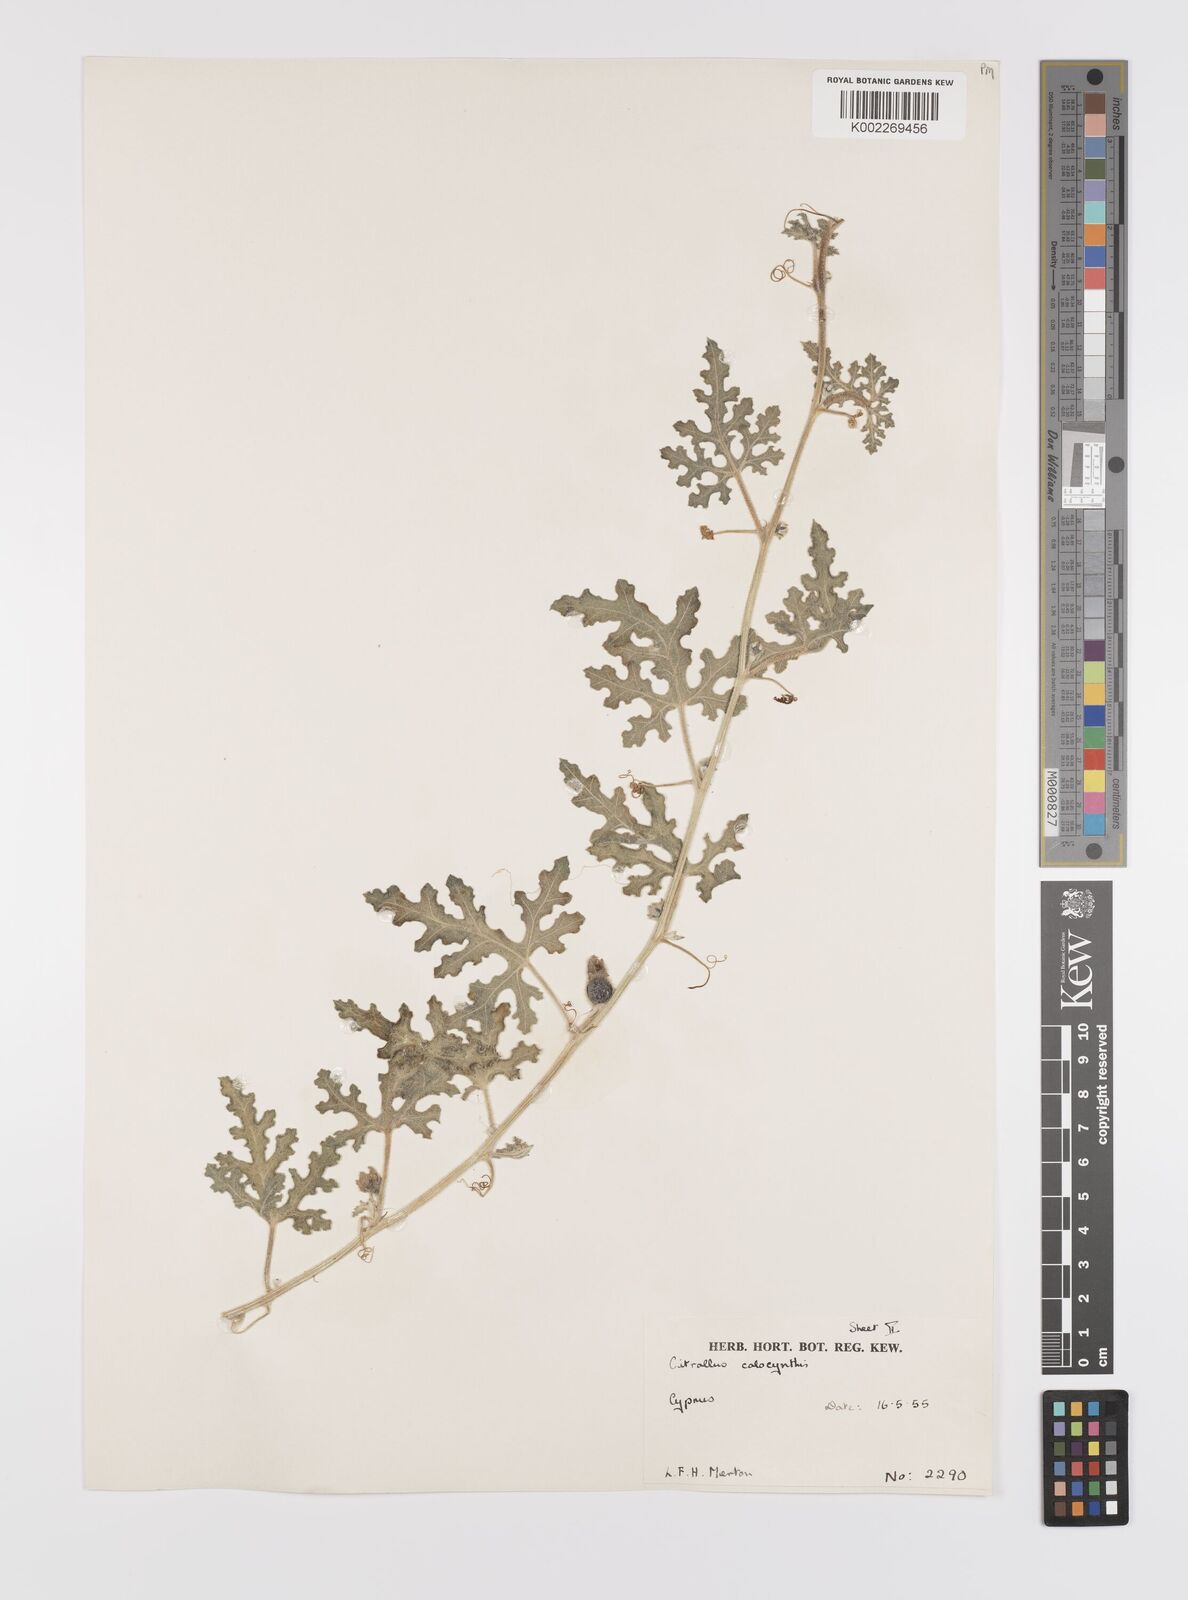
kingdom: Plantae
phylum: Tracheophyta
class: Magnoliopsida
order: Cucurbitales
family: Cucurbitaceae
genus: Citrullus
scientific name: Citrullus colocynthis
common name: Colocynth
